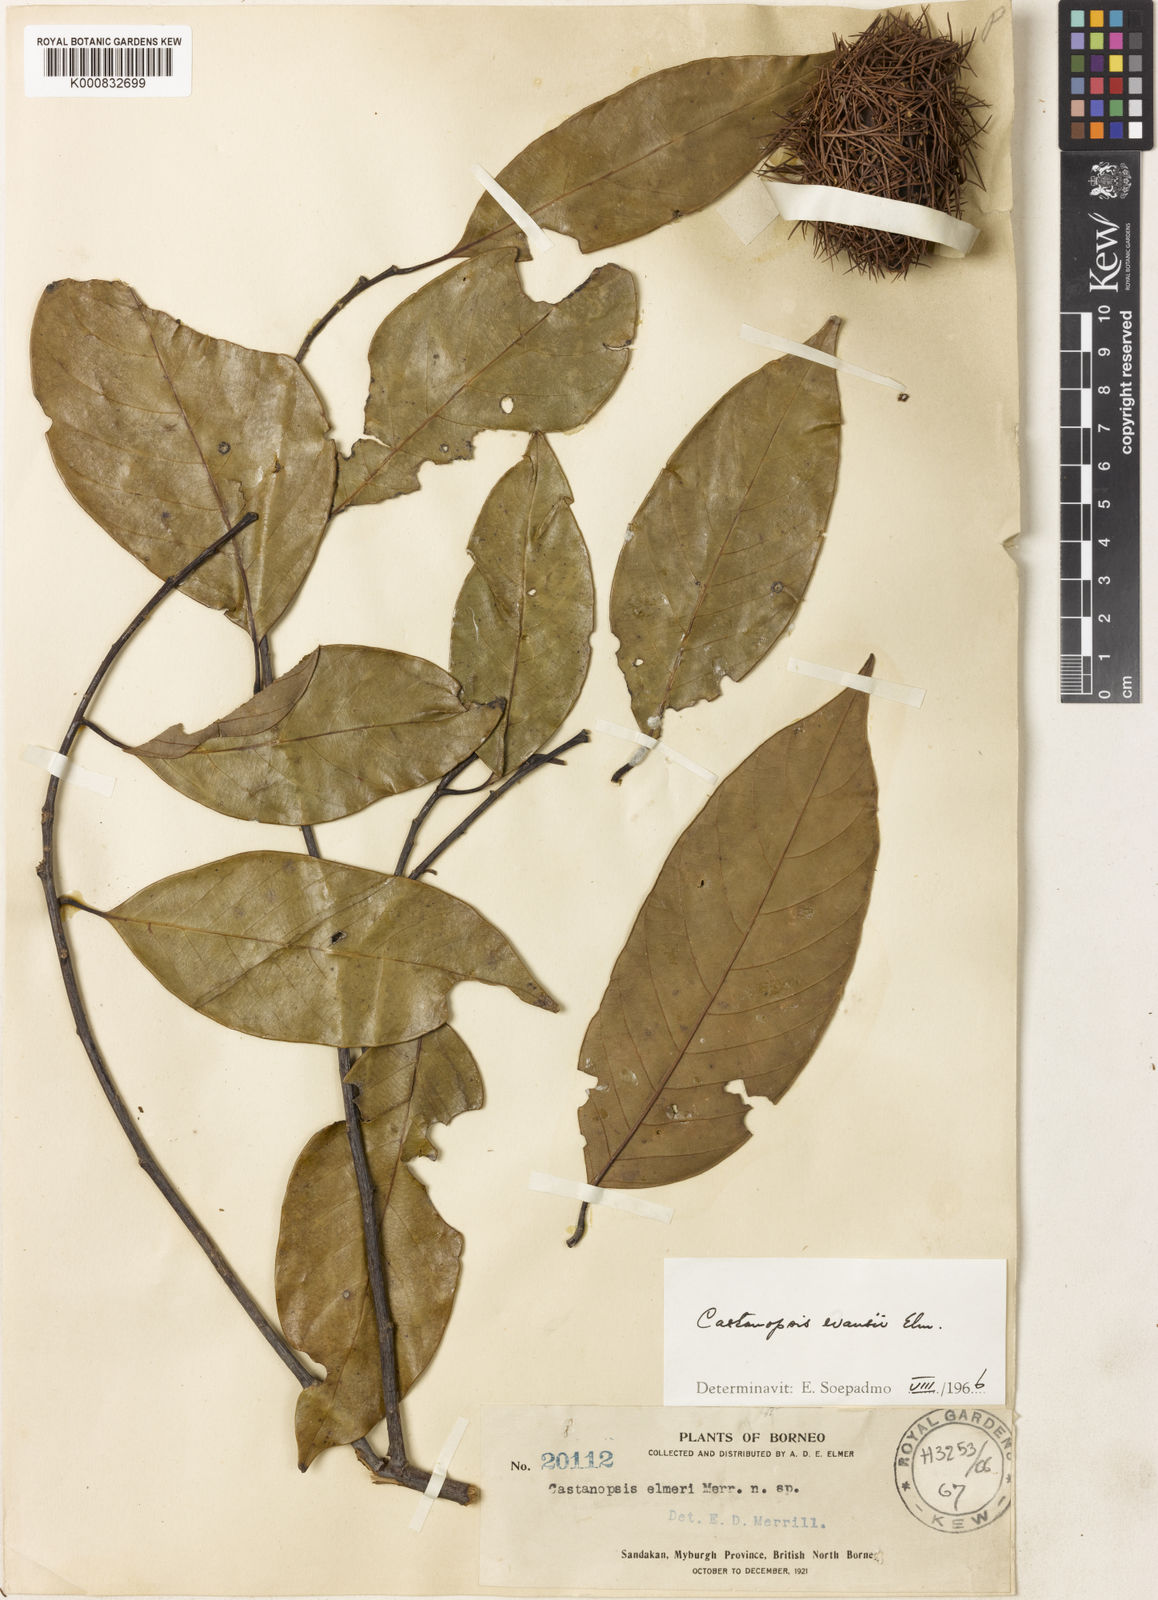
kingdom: Plantae
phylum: Tracheophyta
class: Magnoliopsida
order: Fagales
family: Fagaceae
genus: Castanopsis
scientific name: Castanopsis evansii
